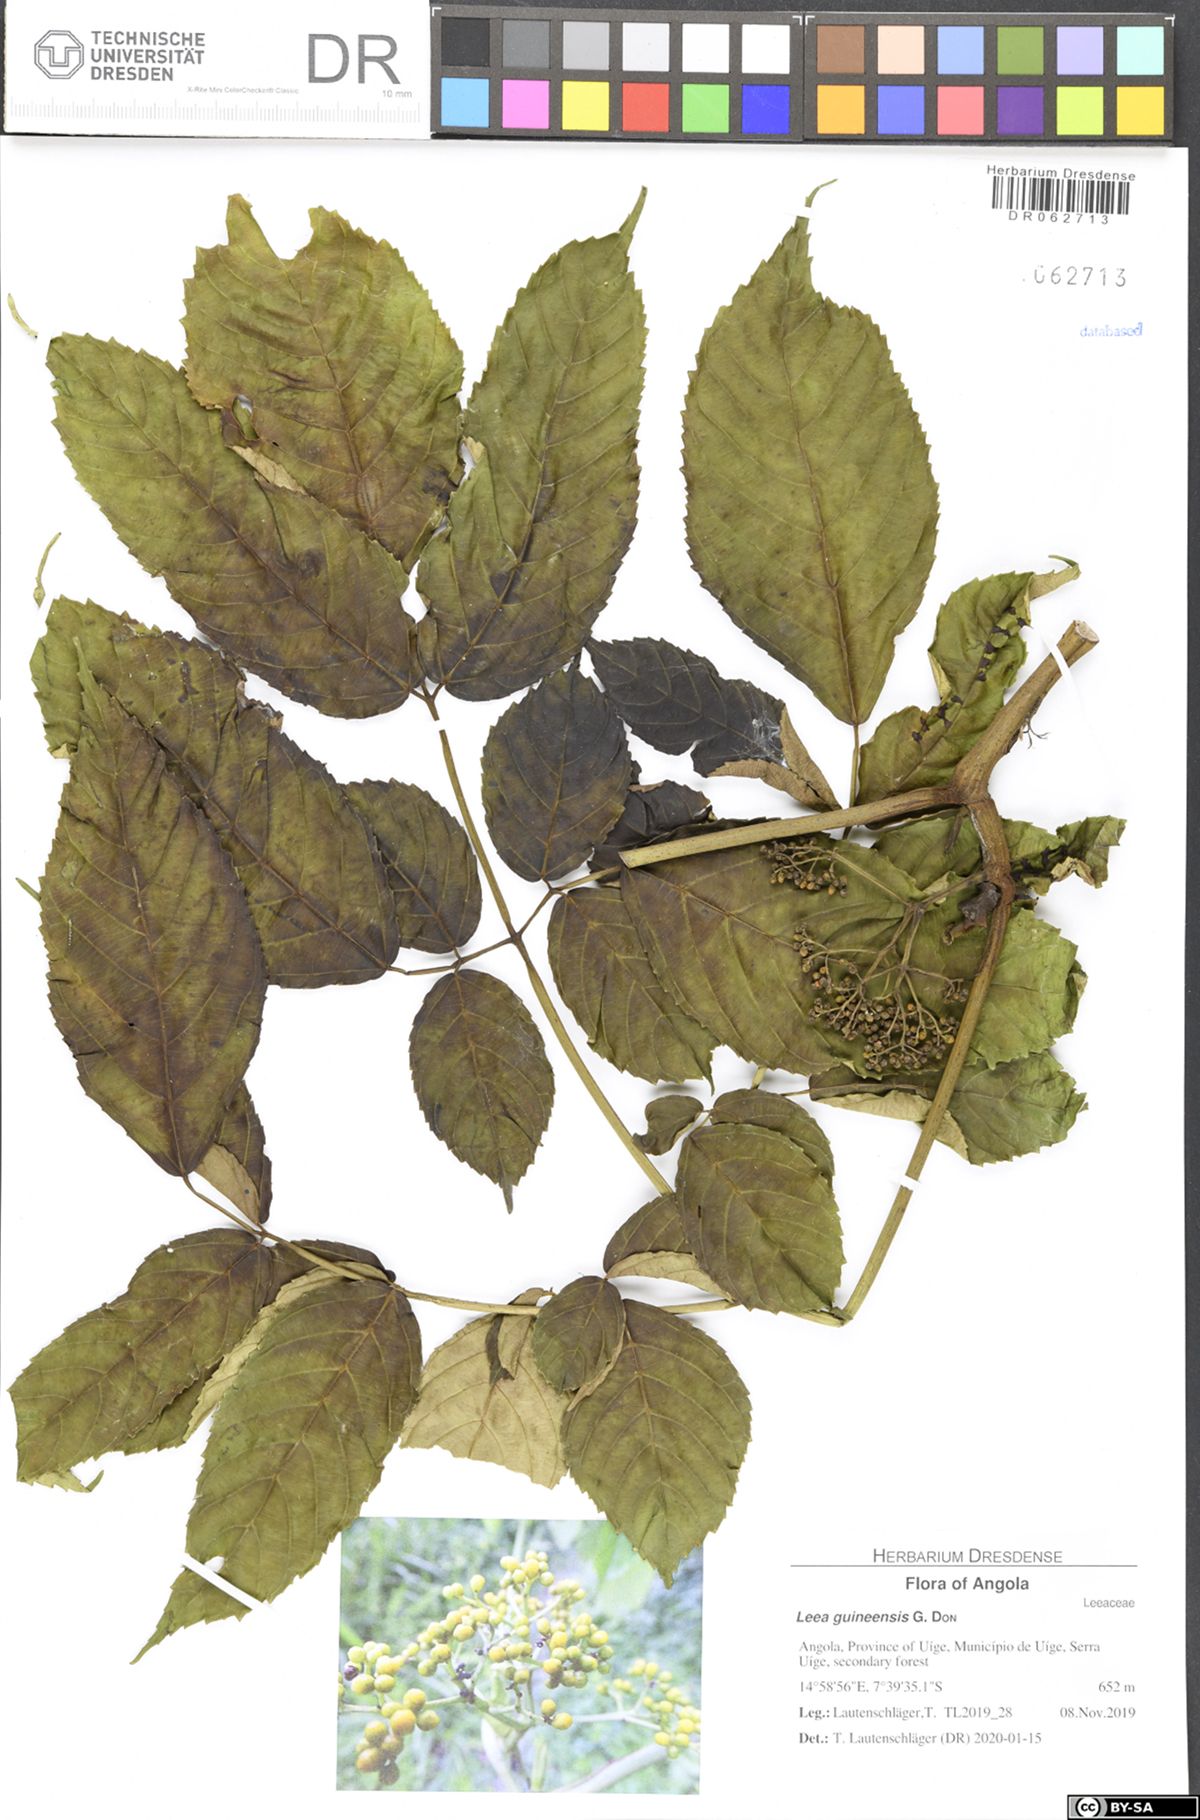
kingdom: Plantae
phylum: Tracheophyta
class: Magnoliopsida
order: Vitales
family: Vitaceae
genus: Leea
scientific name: Leea guineensis
